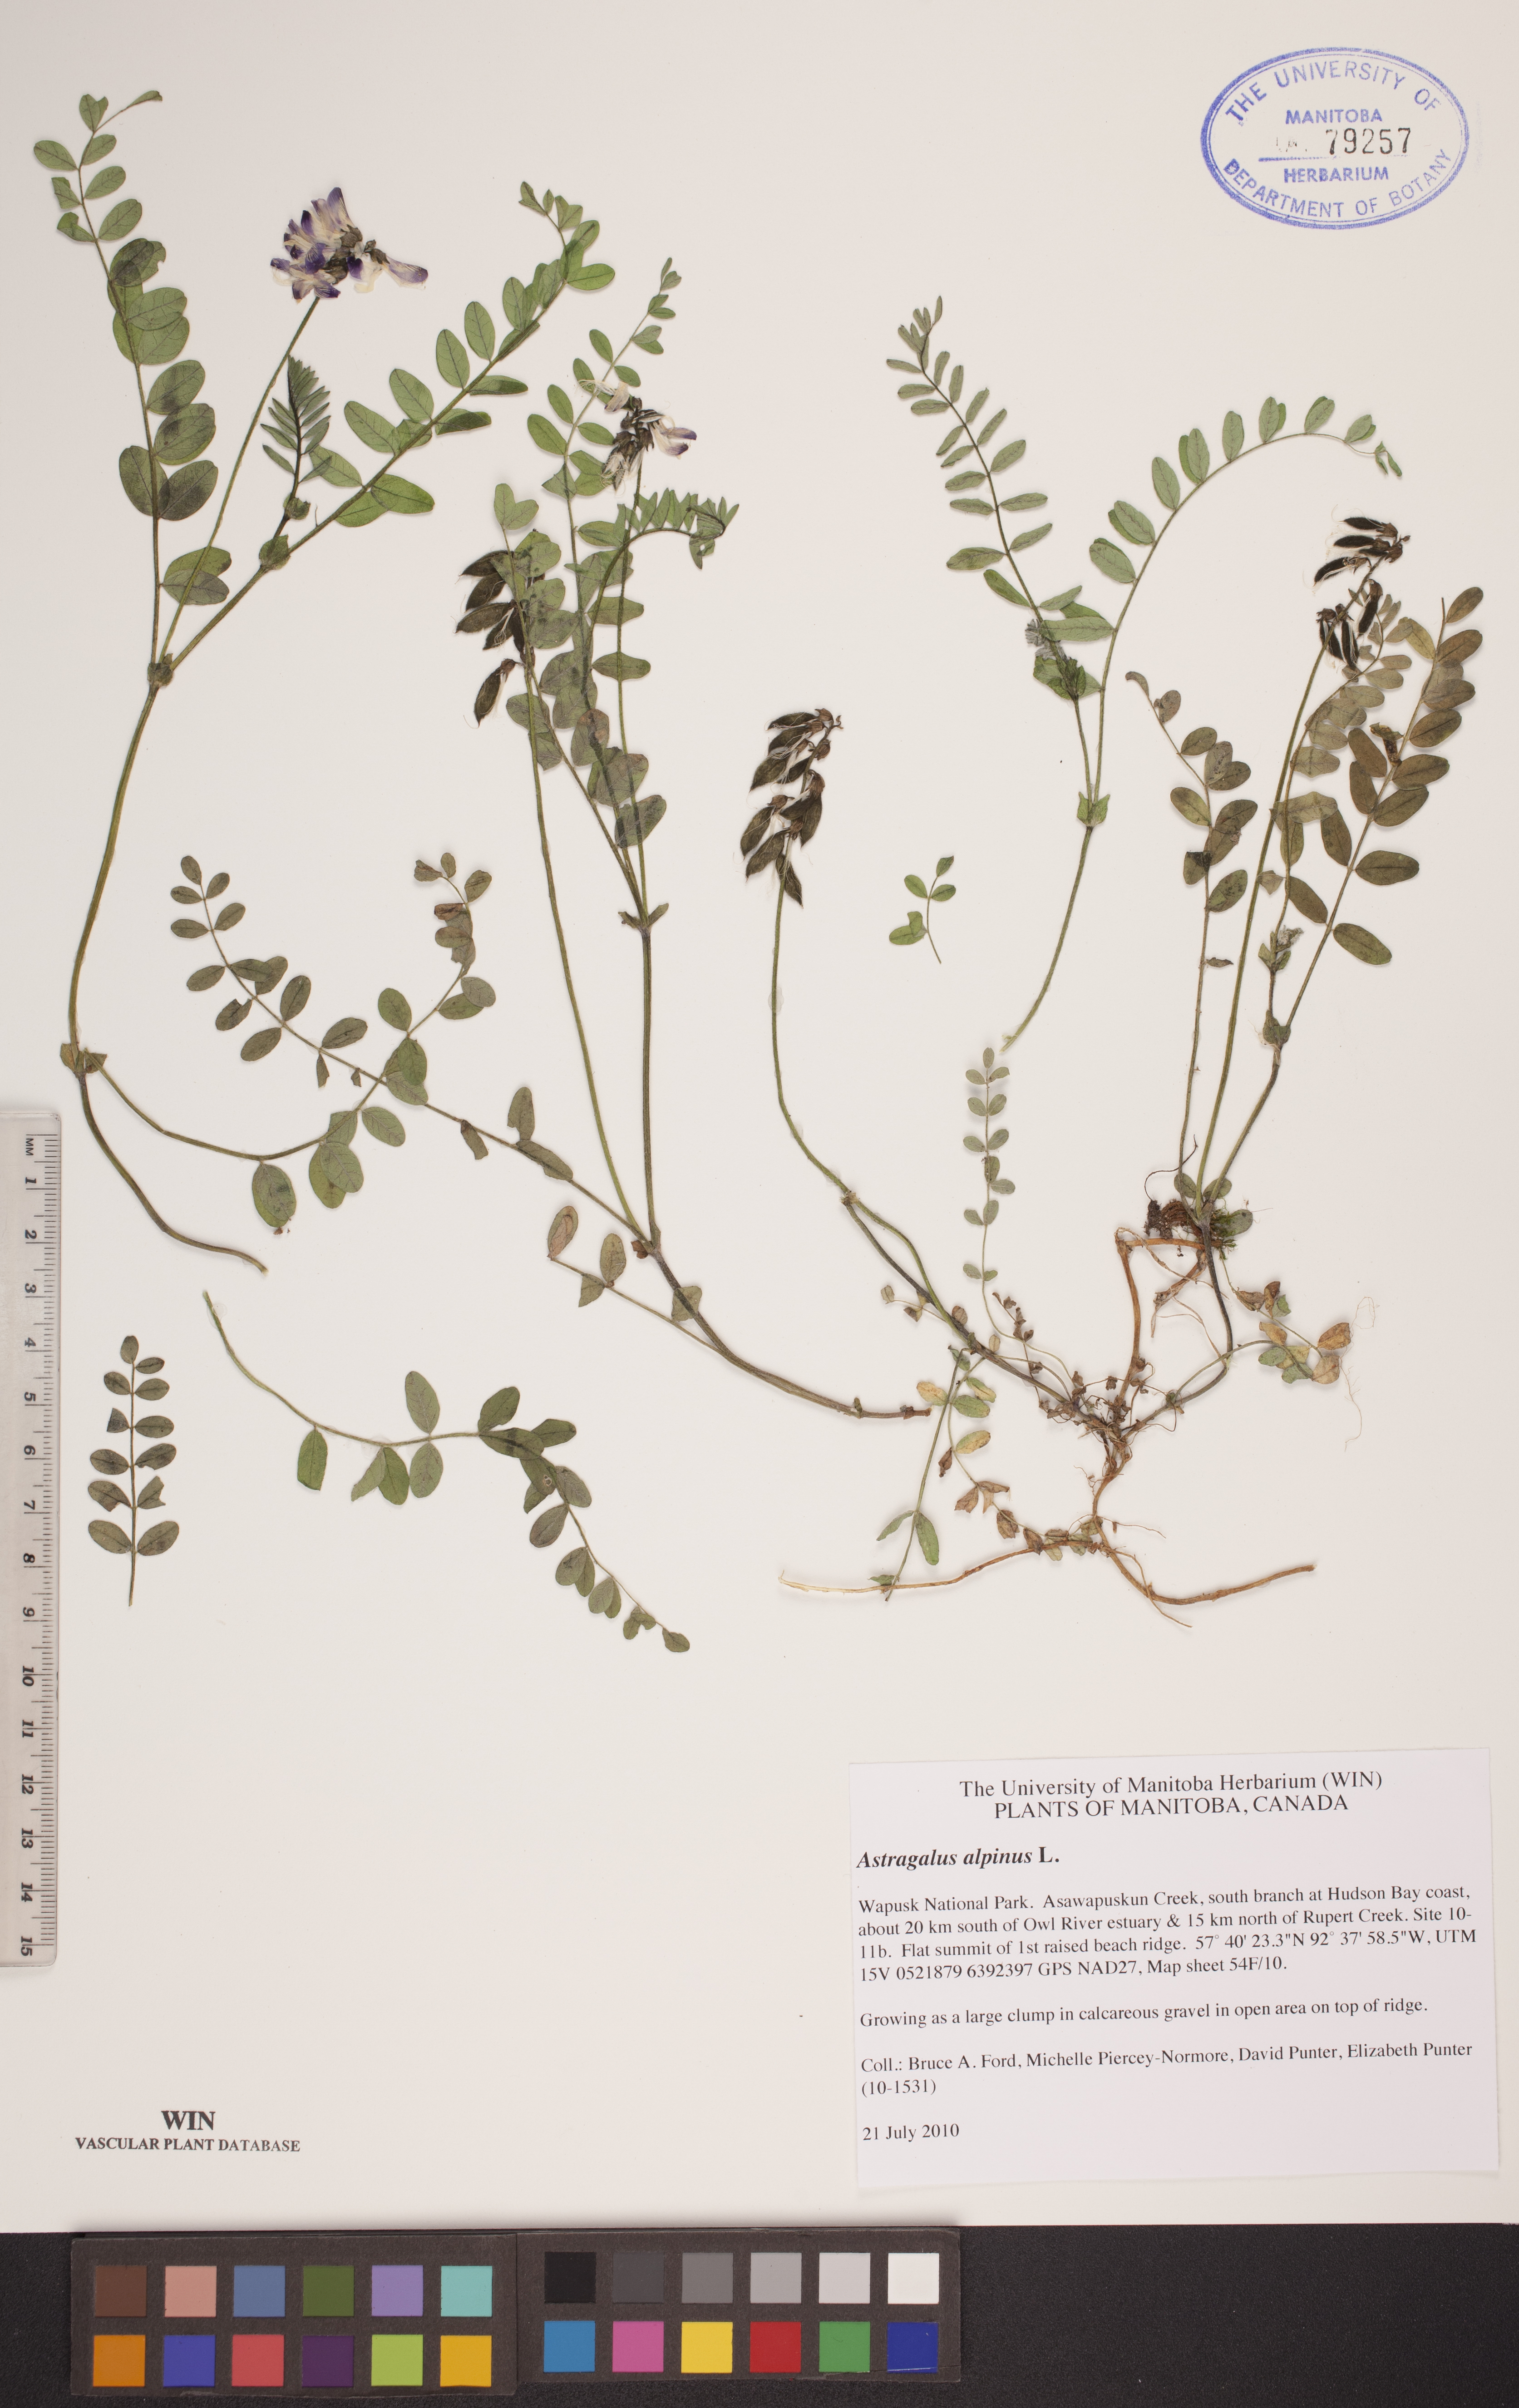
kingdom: Plantae
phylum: Tracheophyta
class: Magnoliopsida
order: Fabales
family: Fabaceae
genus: Astragalus
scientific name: Astragalus alpinus
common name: Alpine milk-vetch
